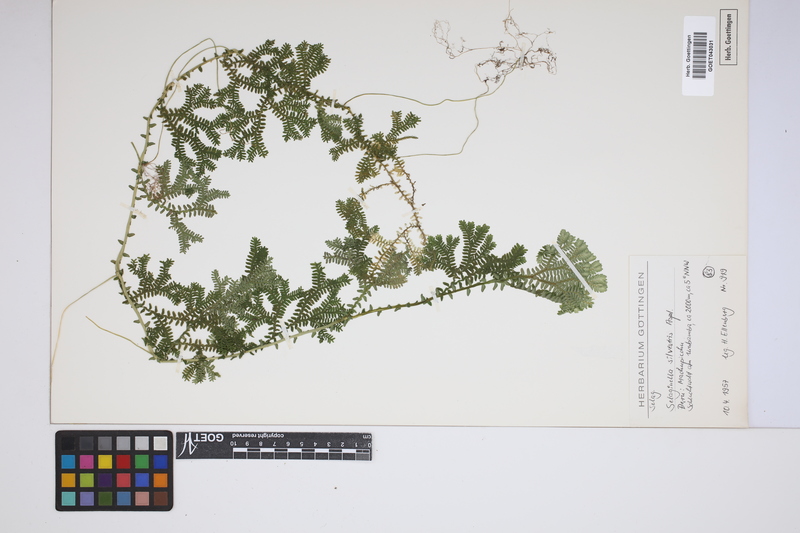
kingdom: Plantae
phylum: Tracheophyta
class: Lycopodiopsida
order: Selaginellales
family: Selaginellaceae
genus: Selaginella
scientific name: Selaginella silvestris
